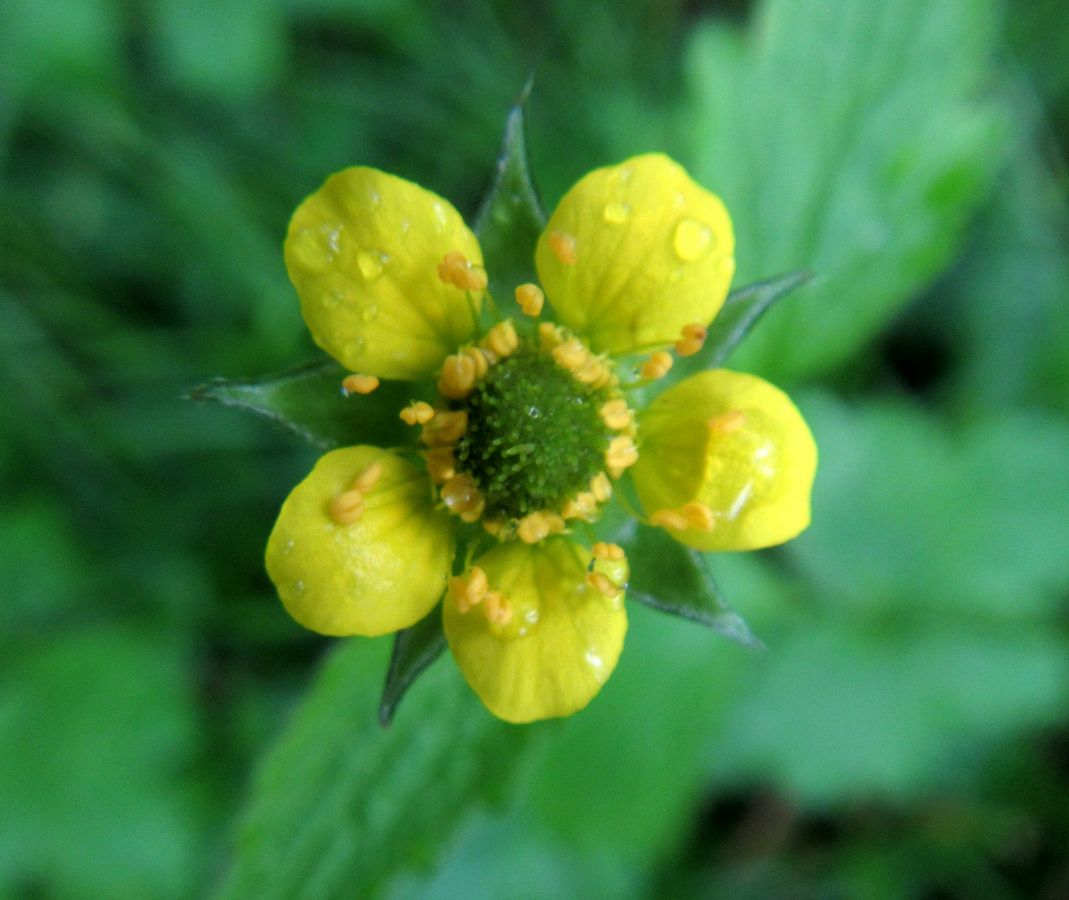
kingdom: Plantae
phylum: Tracheophyta
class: Magnoliopsida
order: Rosales
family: Rosaceae
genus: Geum
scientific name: Geum urbanum
